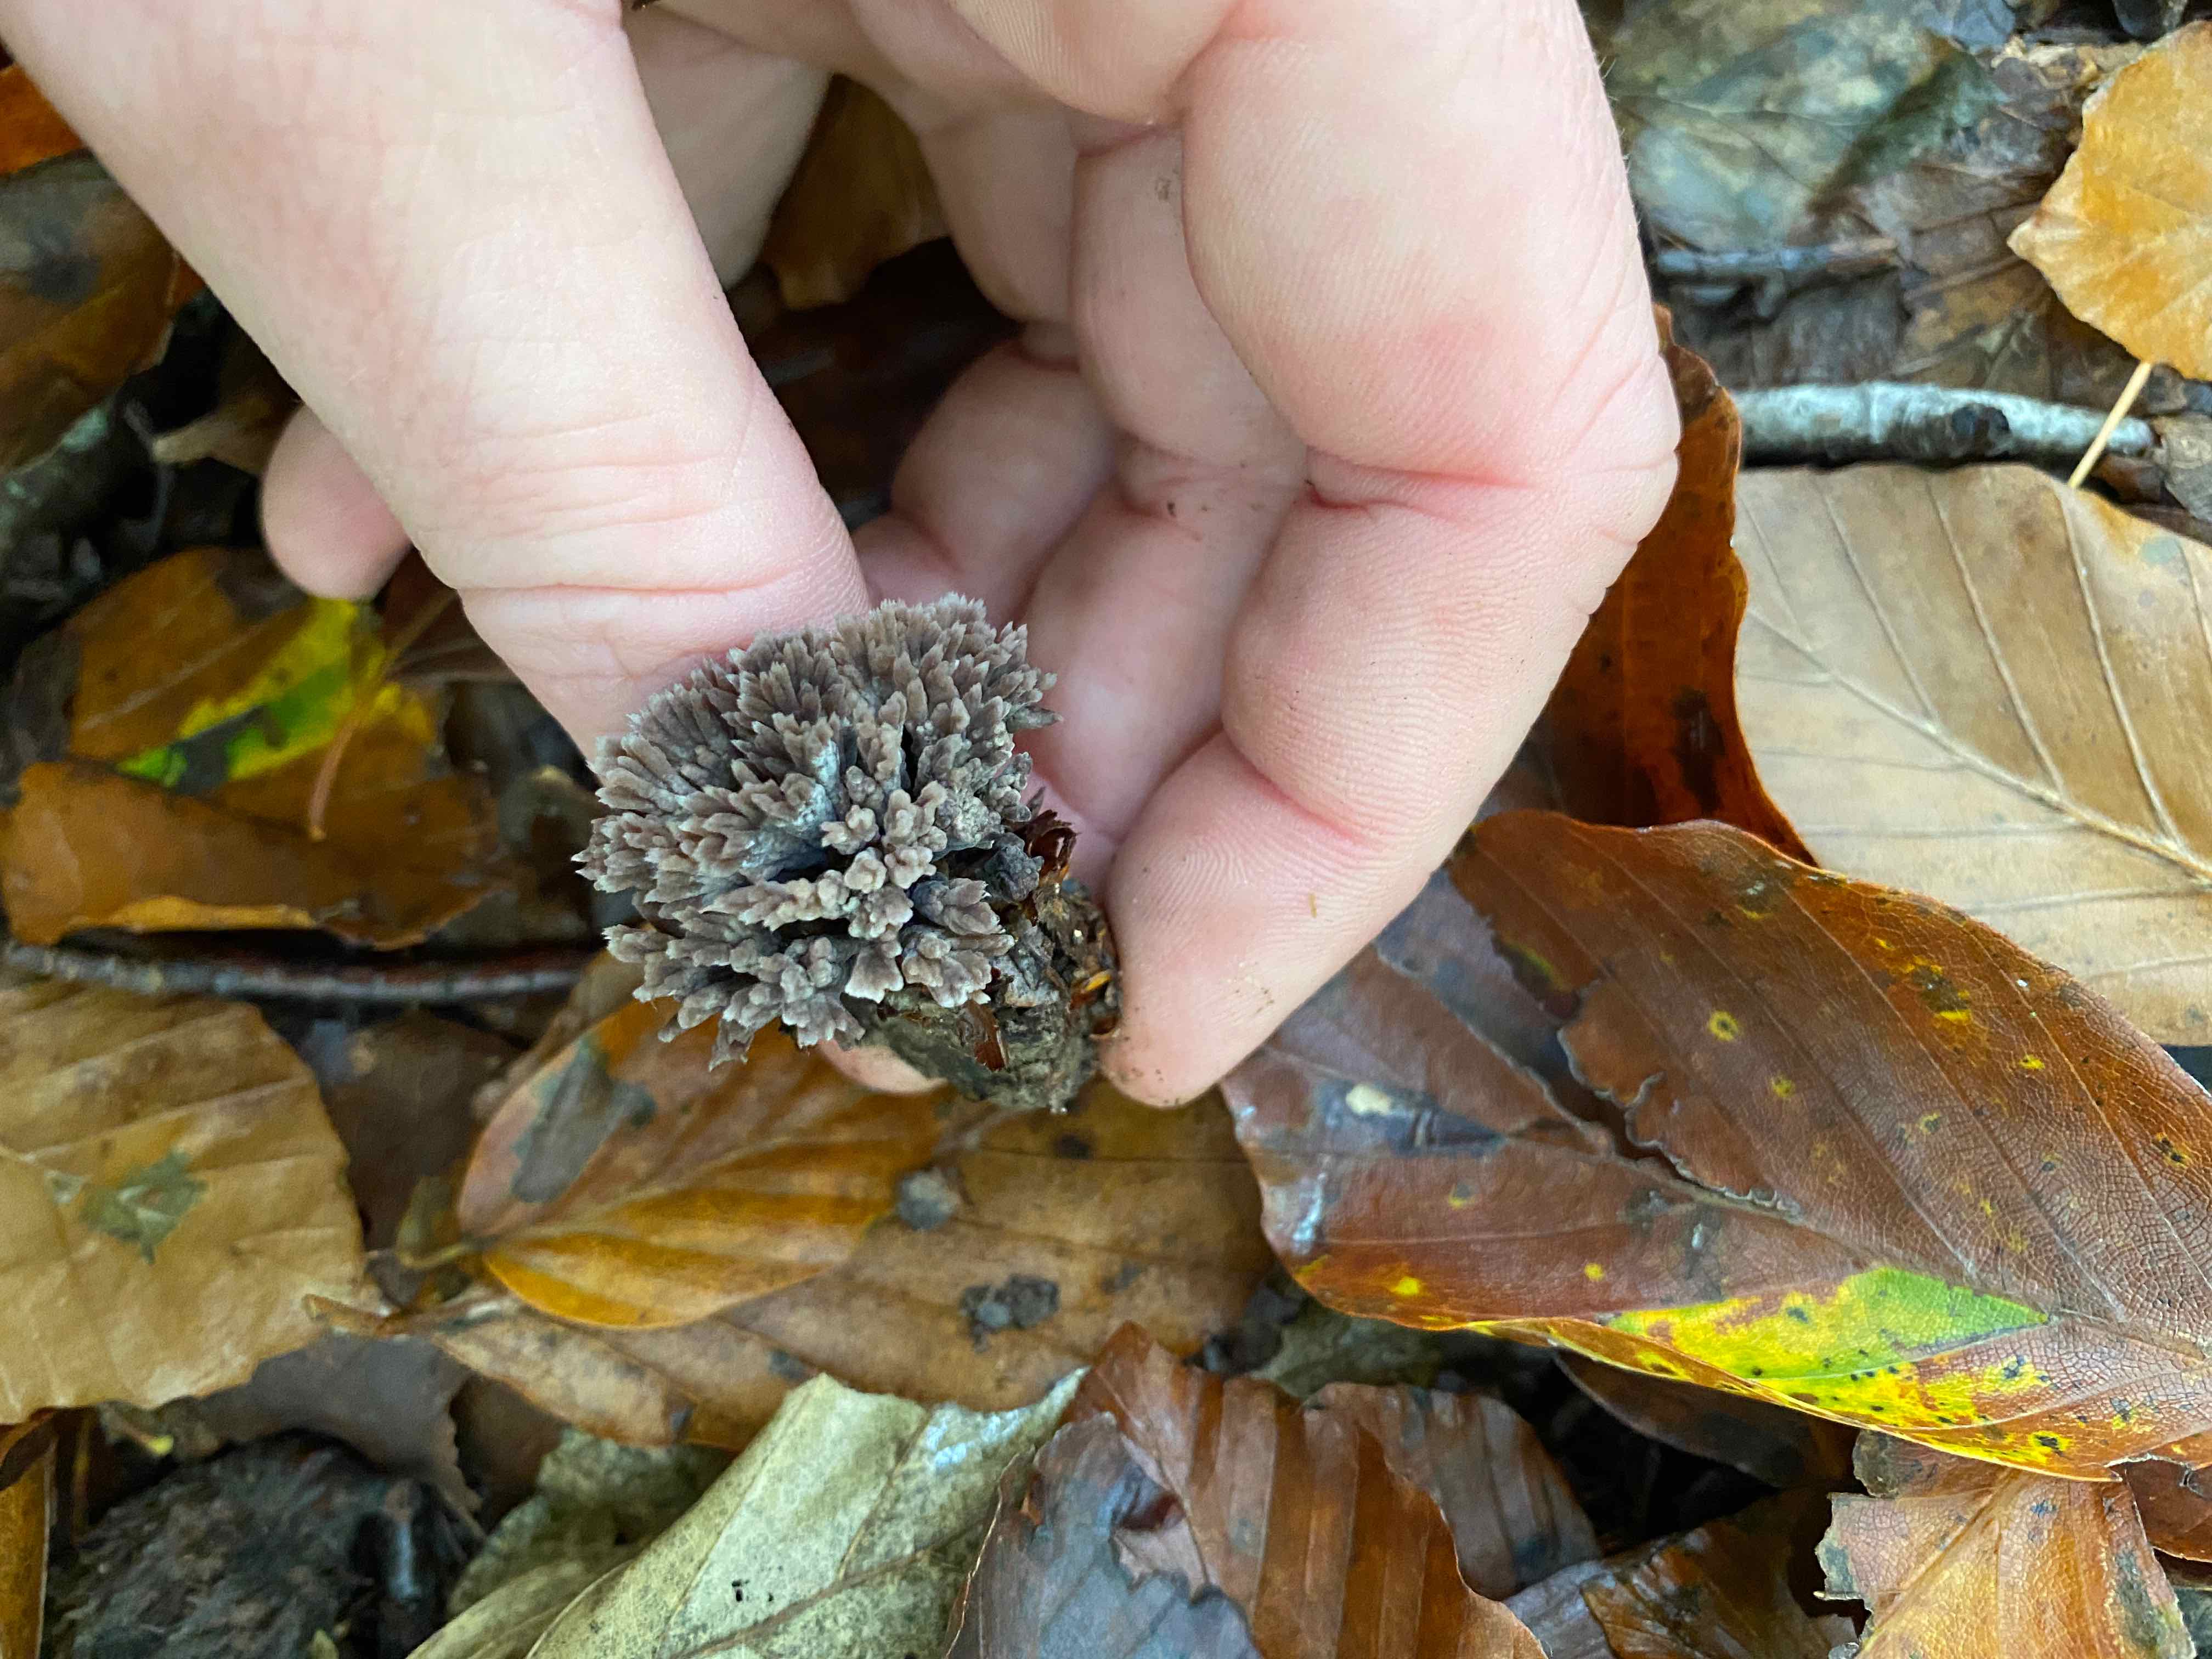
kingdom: Fungi
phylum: Basidiomycota
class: Agaricomycetes
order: Thelephorales
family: Thelephoraceae
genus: Thelephora
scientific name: Thelephora anthocephala
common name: busk-frynsesvamp
